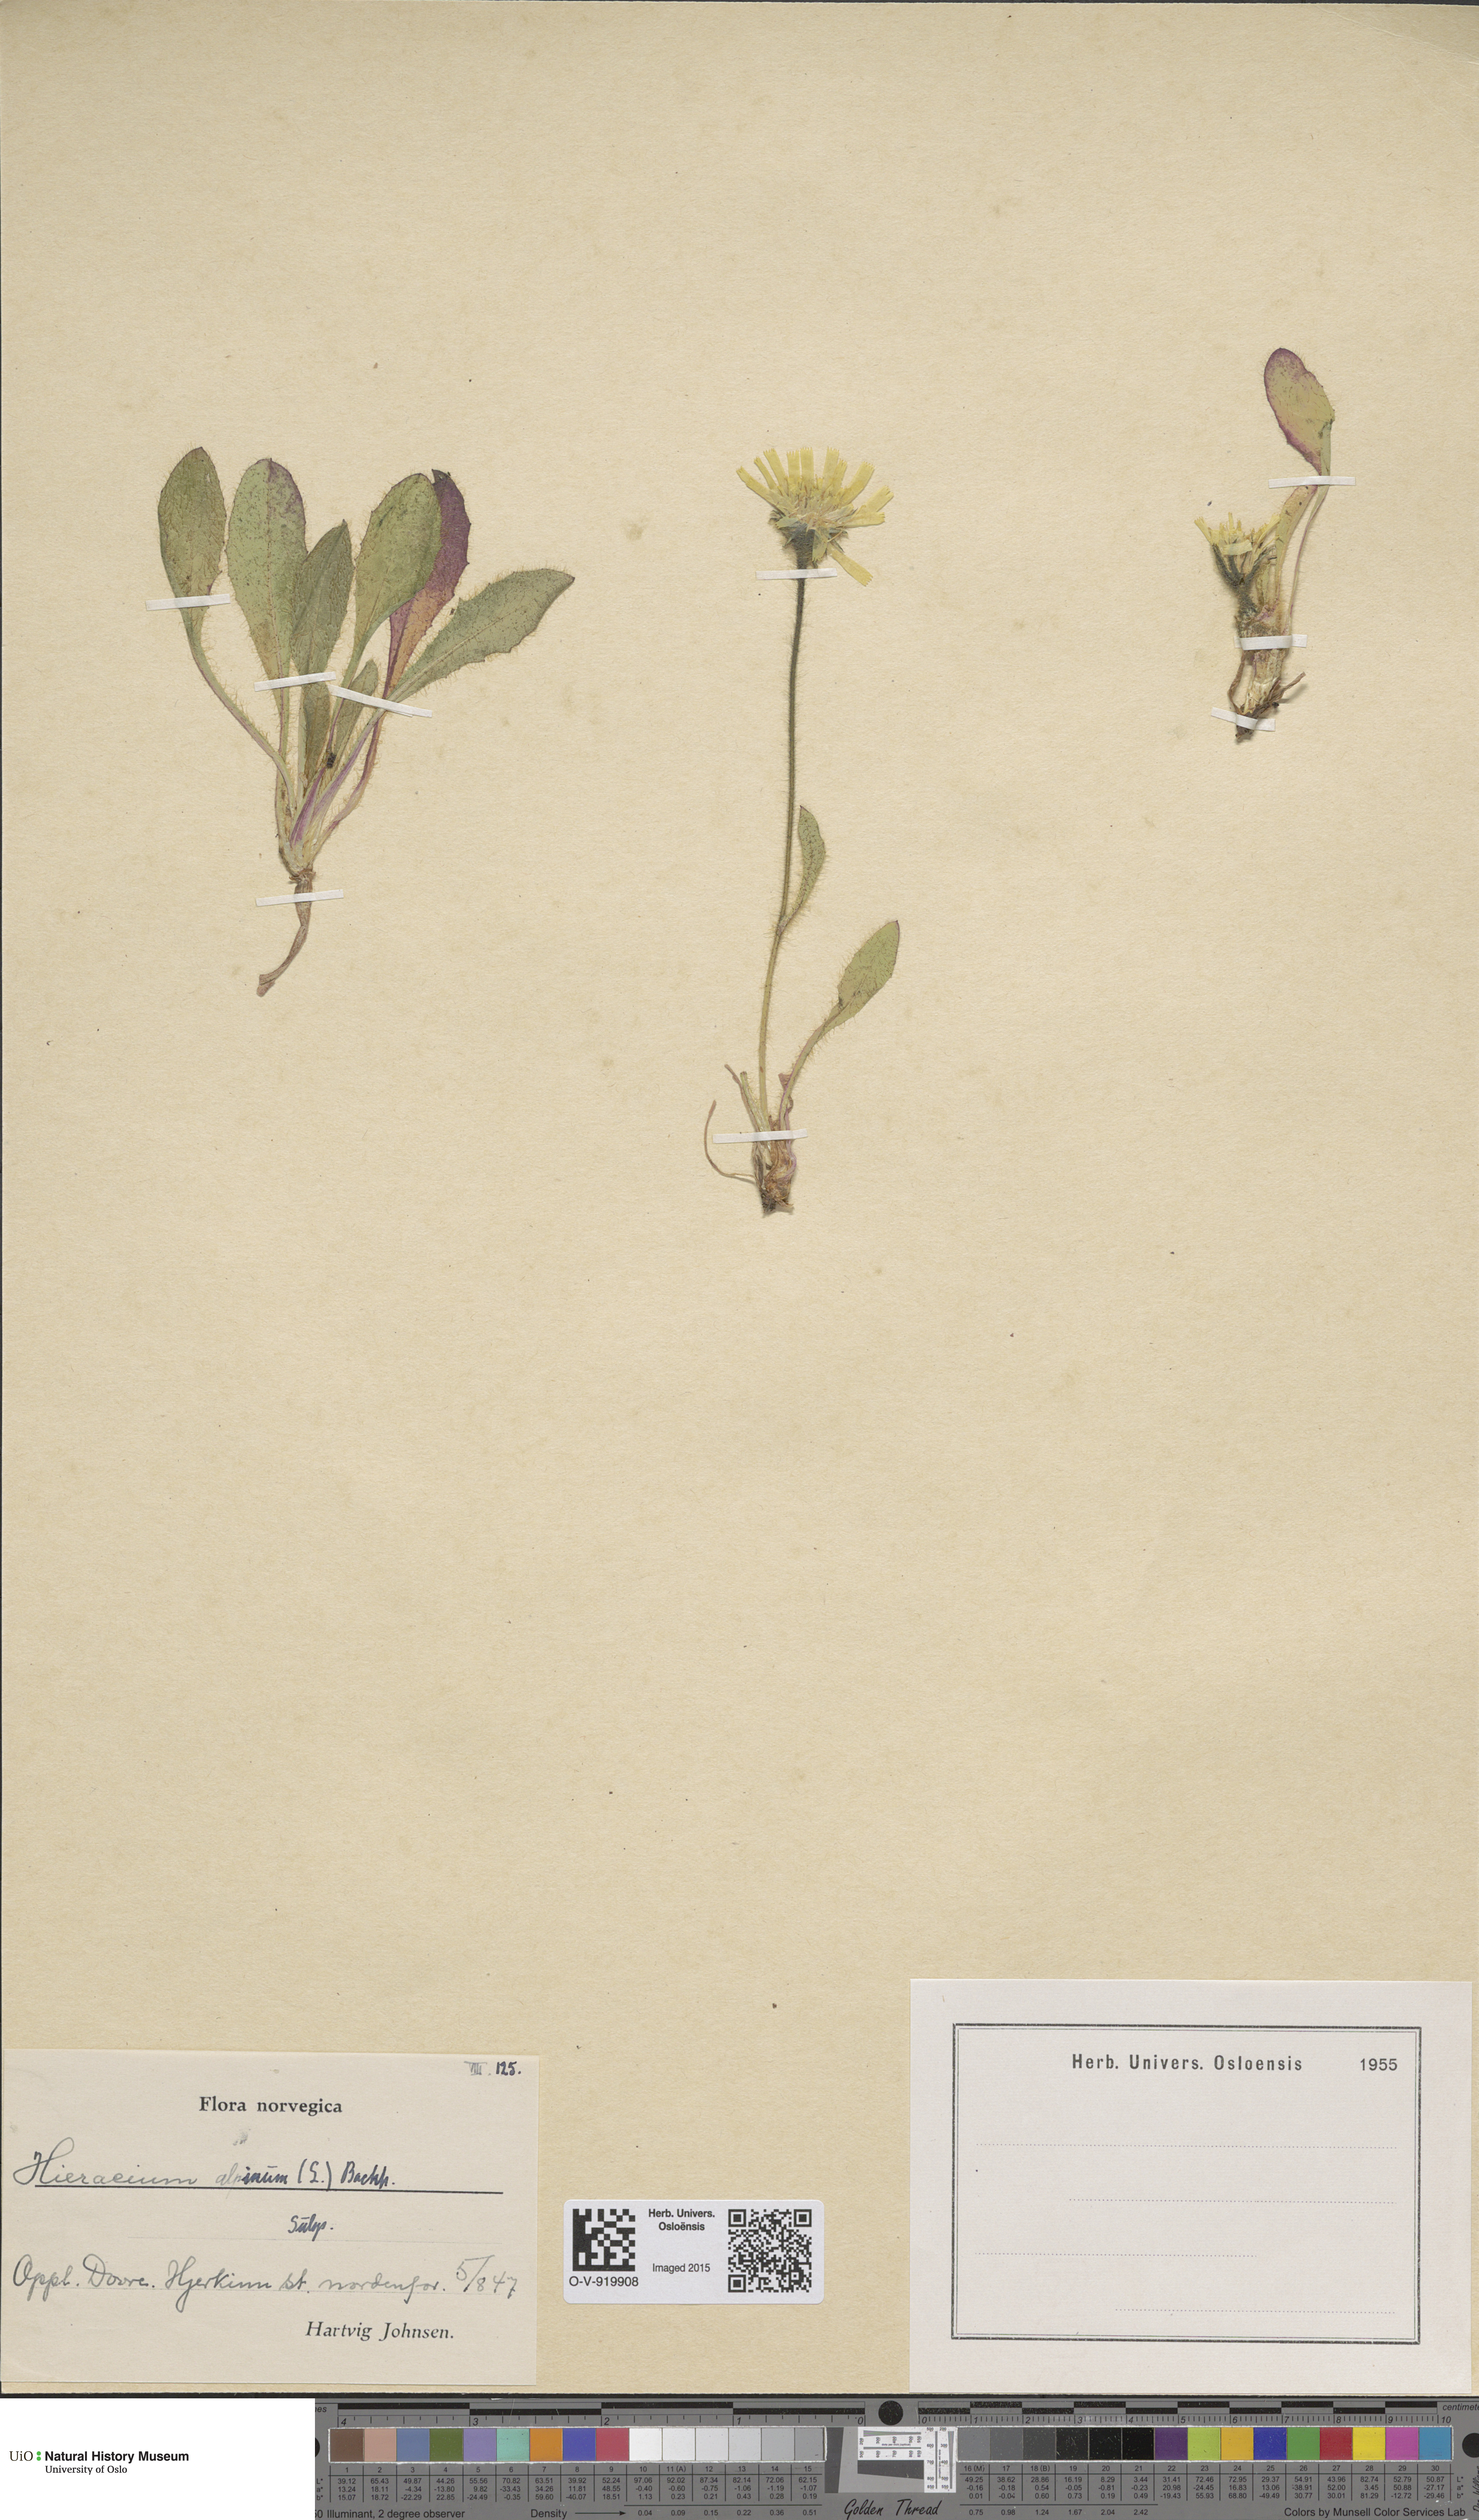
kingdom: Plantae
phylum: Tracheophyta
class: Magnoliopsida
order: Asterales
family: Asteraceae
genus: Hieracium
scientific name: Hieracium alpinum
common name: Alpine hawkweed
